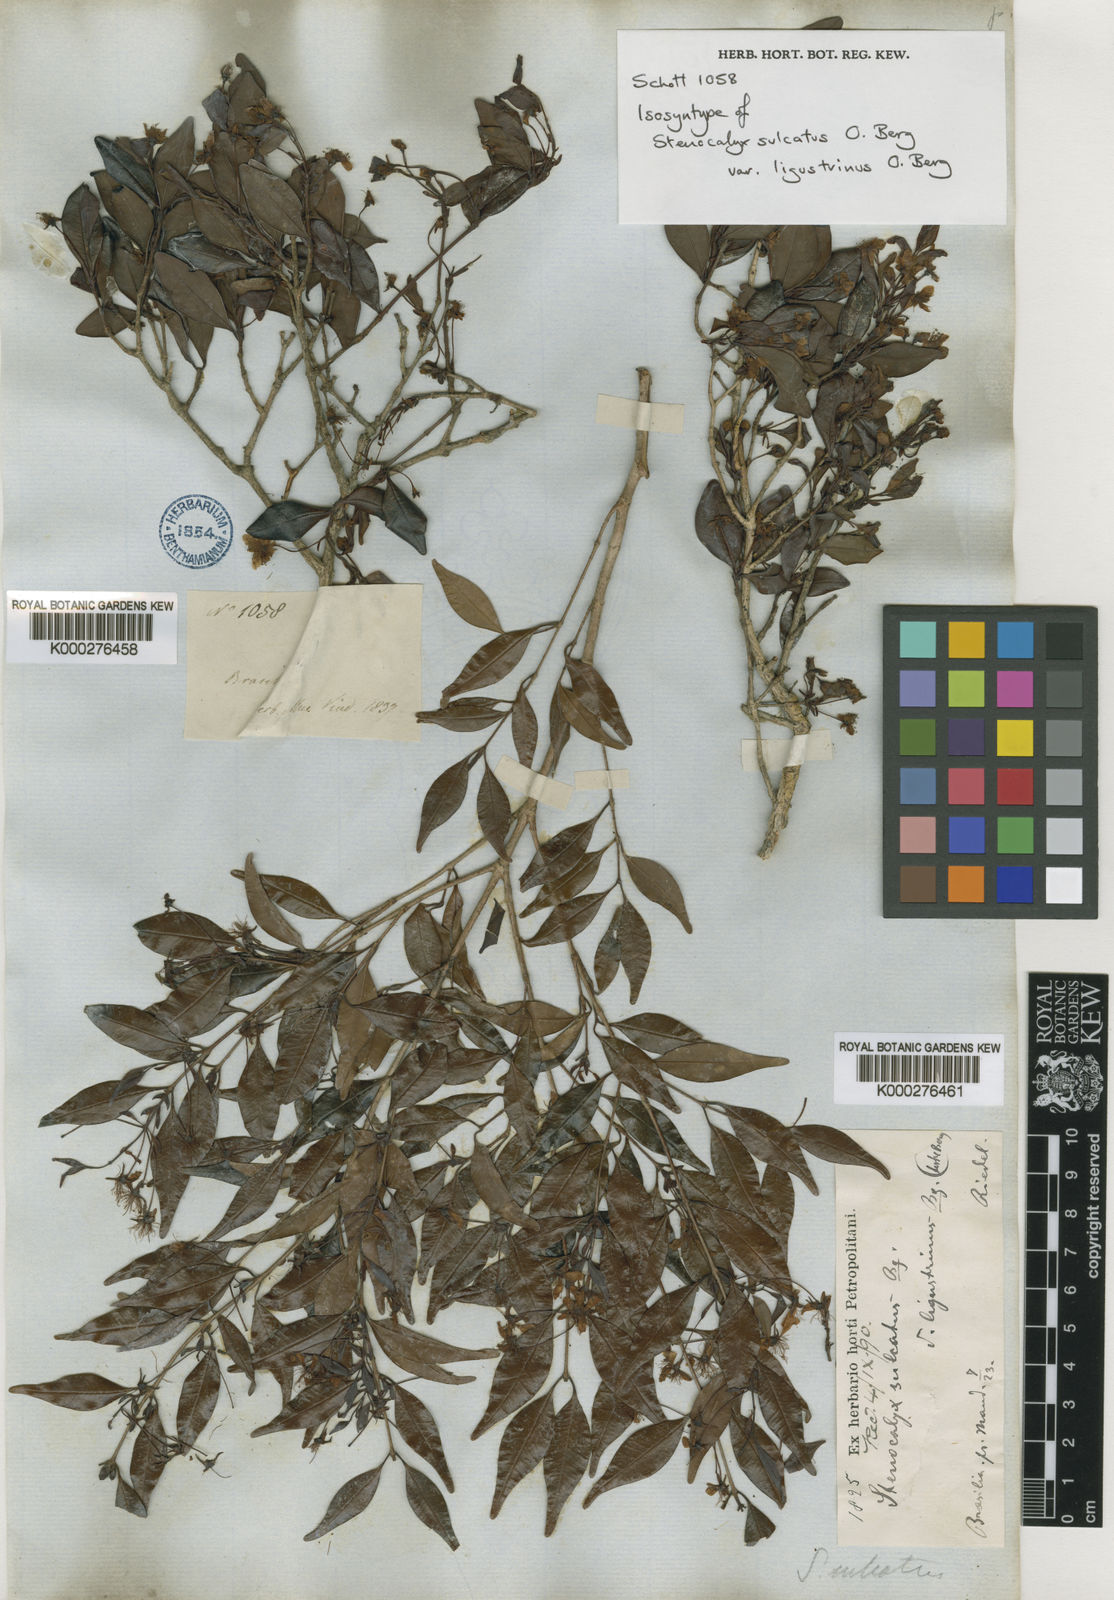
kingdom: Plantae
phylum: Tracheophyta
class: Magnoliopsida
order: Myrtales
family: Myrtaceae
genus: Eugenia
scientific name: Eugenia sulcata
